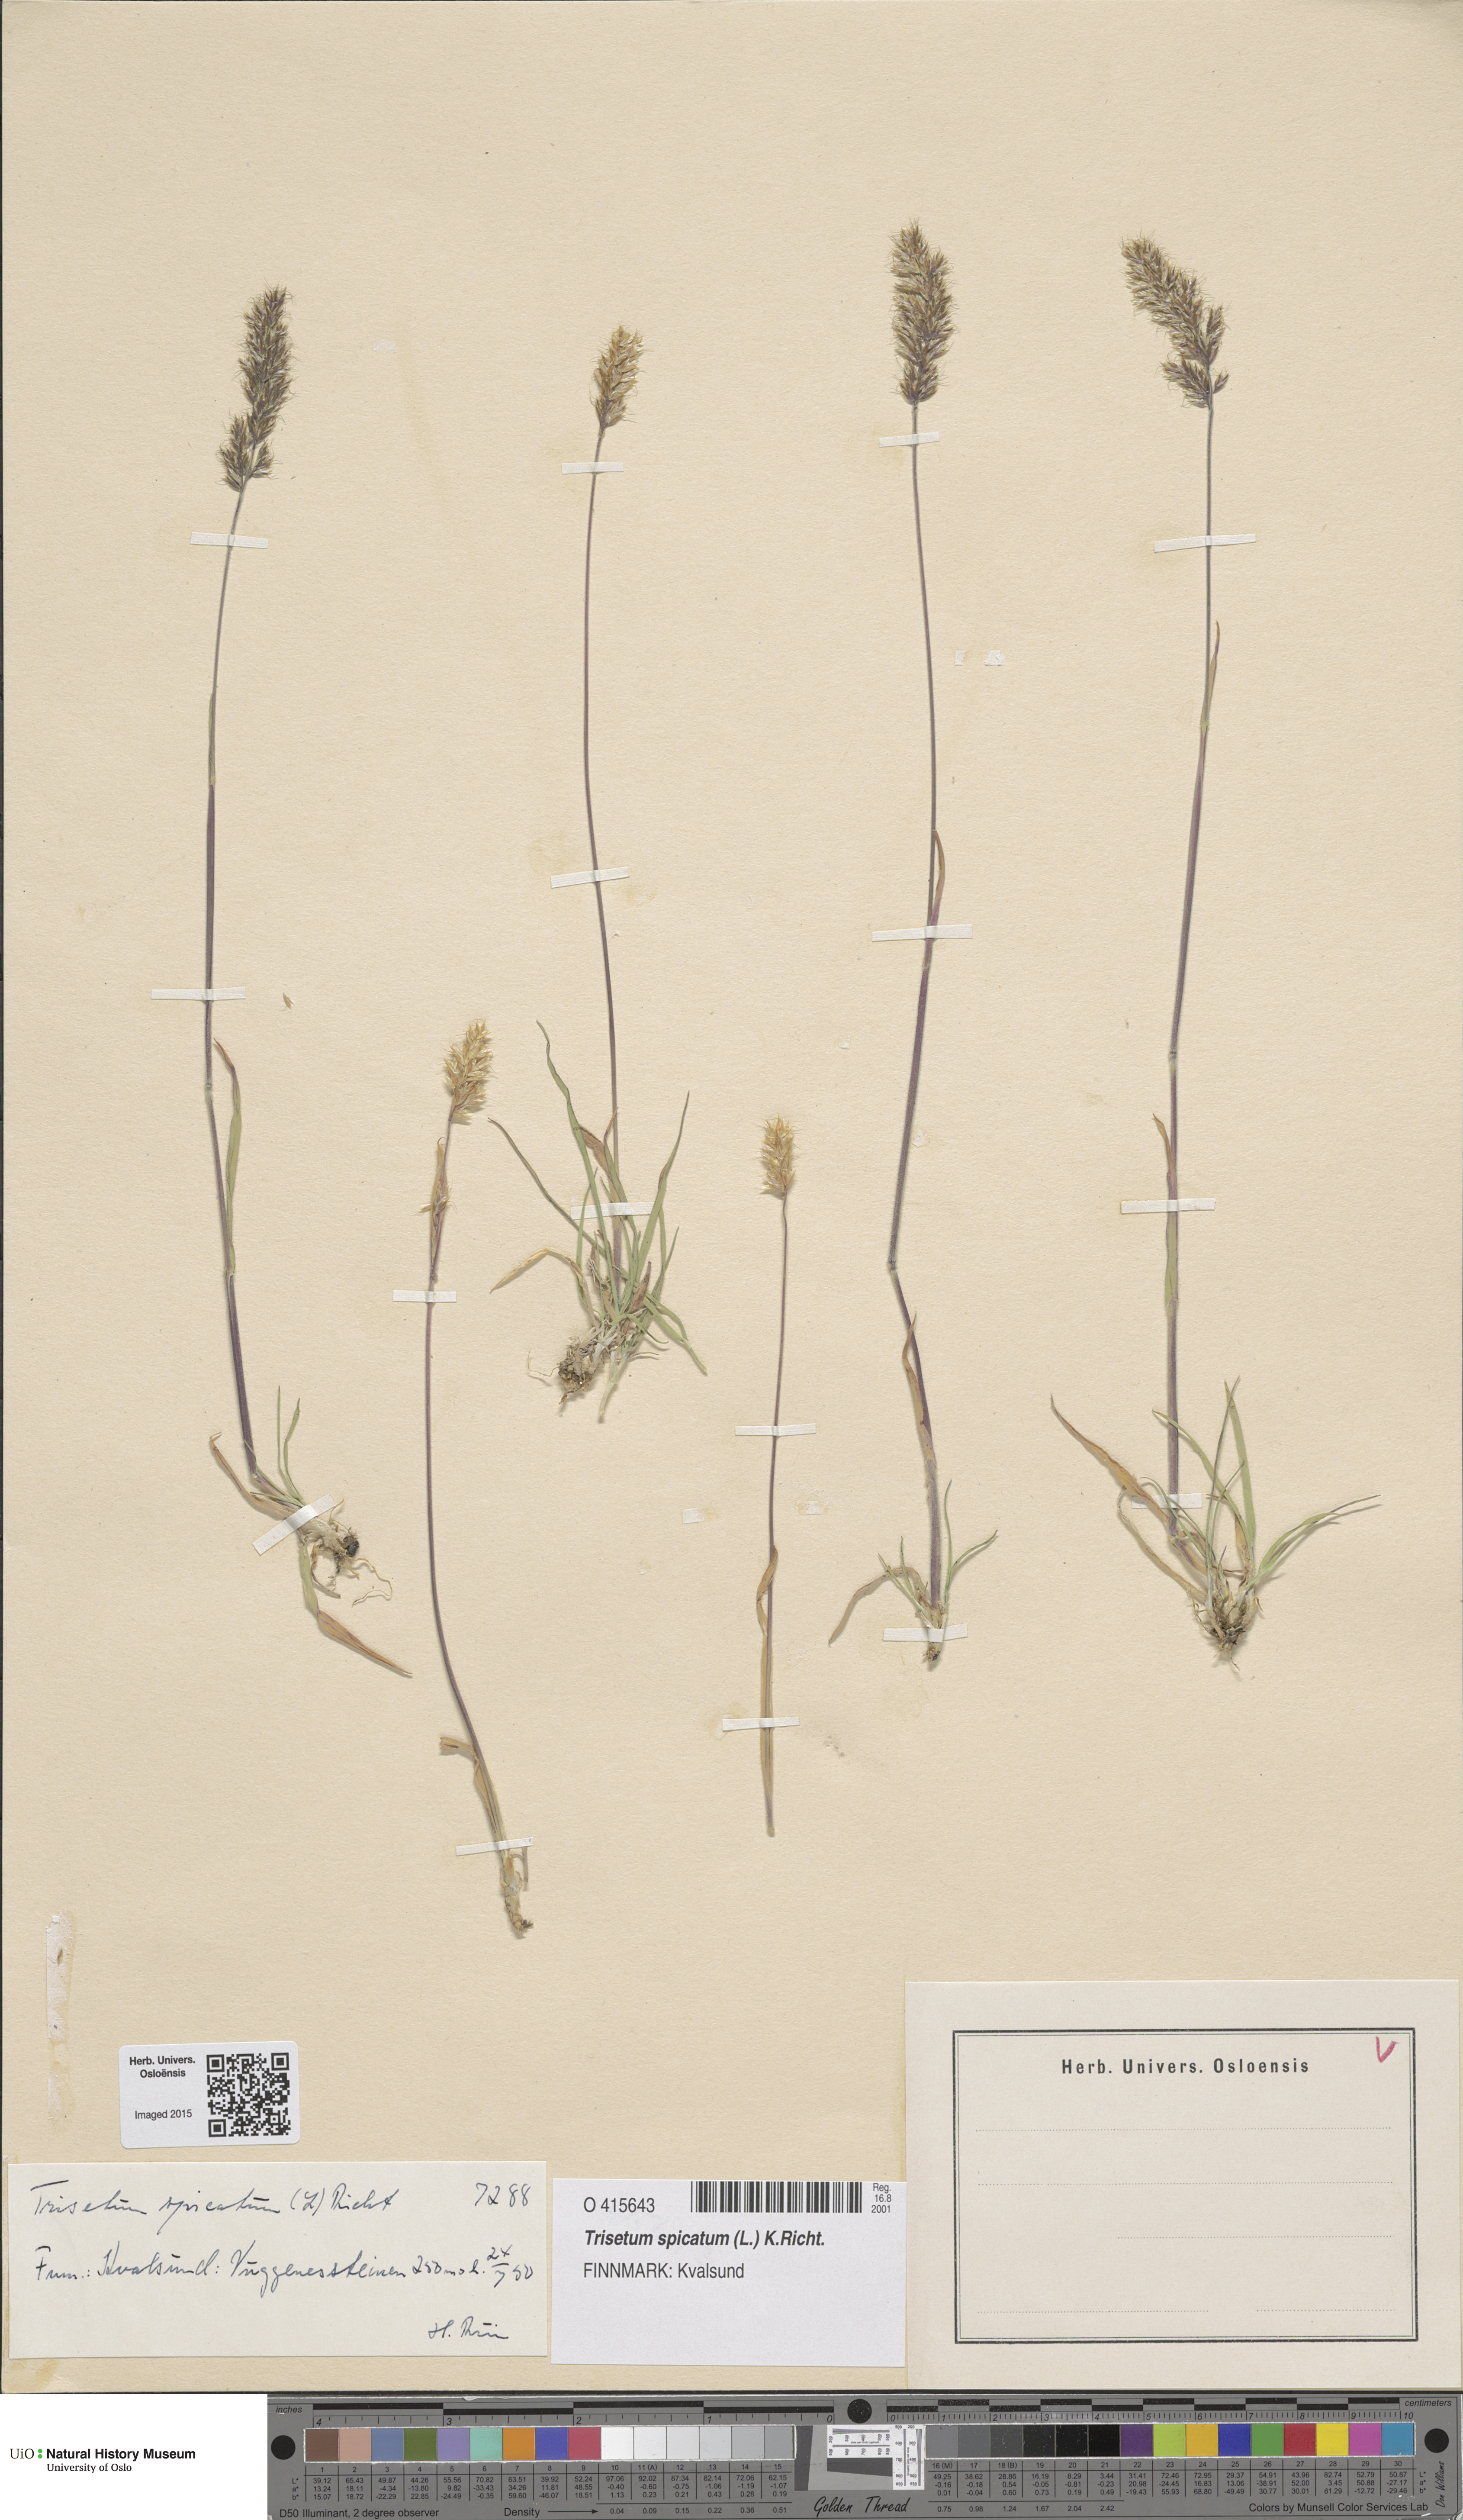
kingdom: Plantae
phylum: Tracheophyta
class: Liliopsida
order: Poales
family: Poaceae
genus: Koeleria
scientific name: Koeleria spicata
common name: Mountain trisetum
